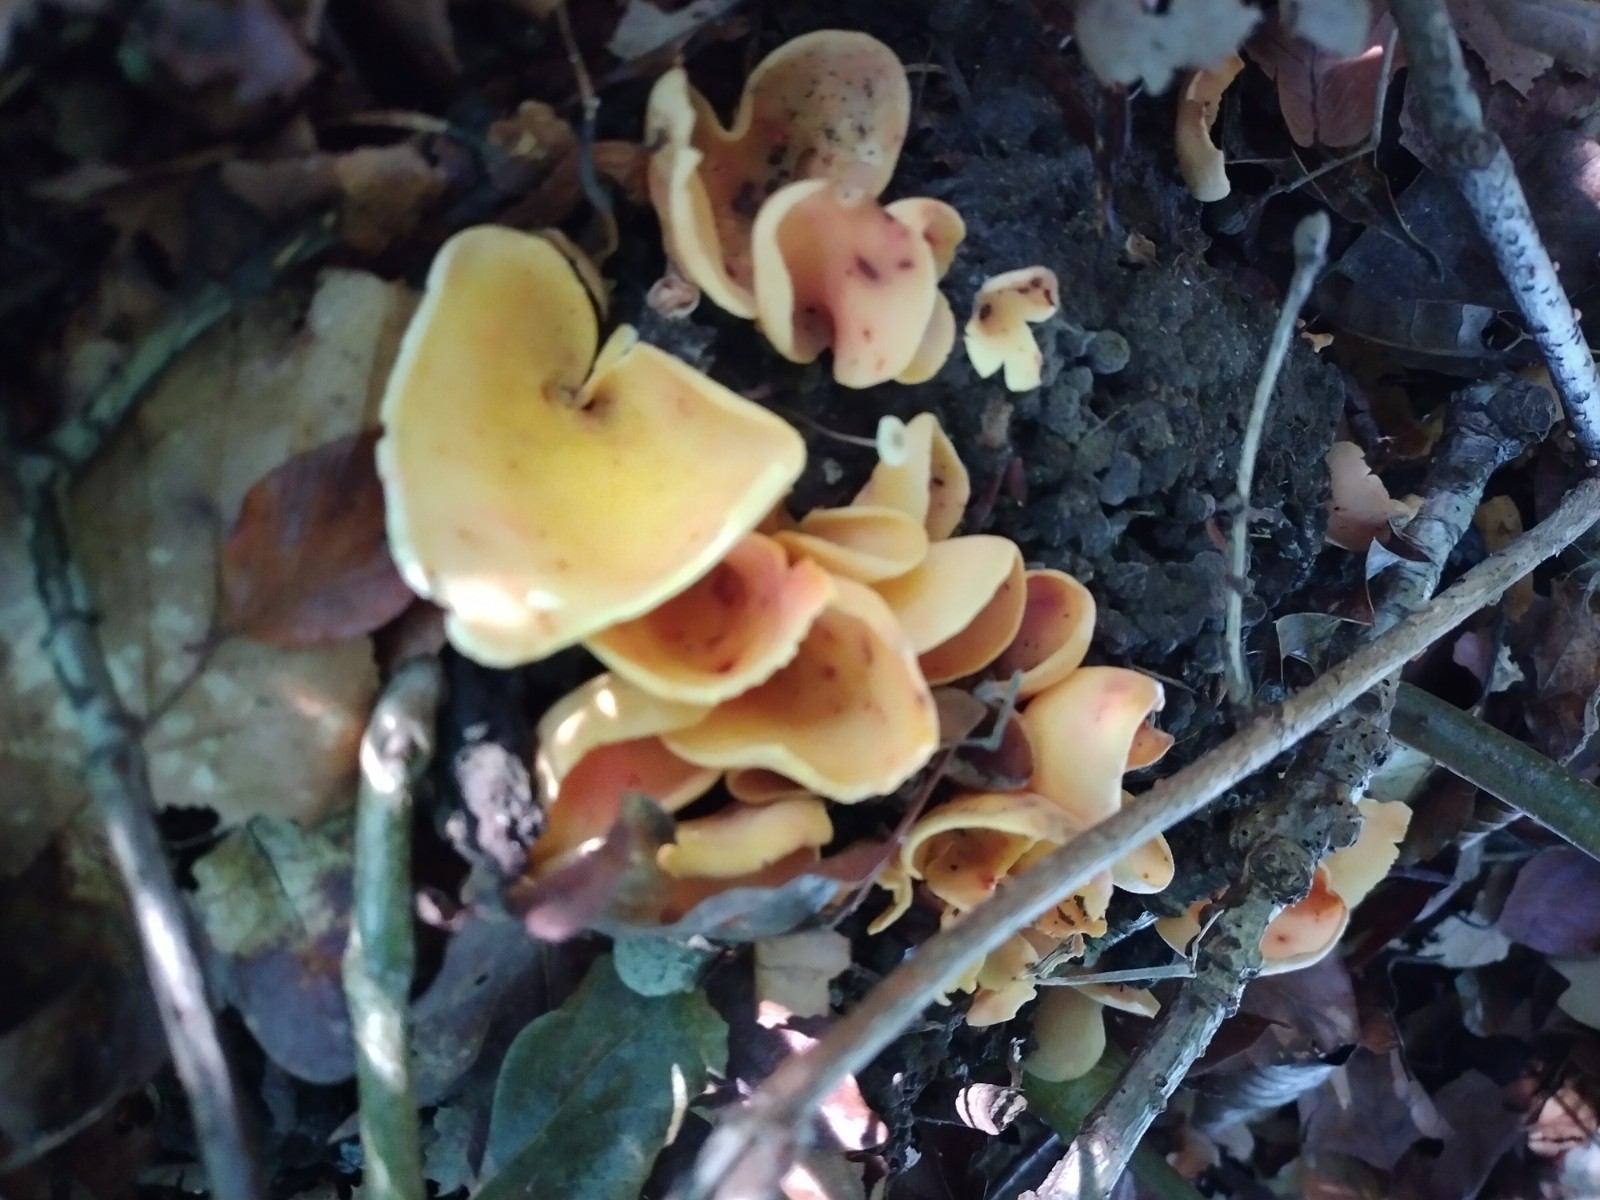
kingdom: Fungi
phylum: Ascomycota
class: Pezizomycetes
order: Pezizales
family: Otideaceae
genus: Otidea
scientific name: Otidea onotica
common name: æsel-ørebæger
